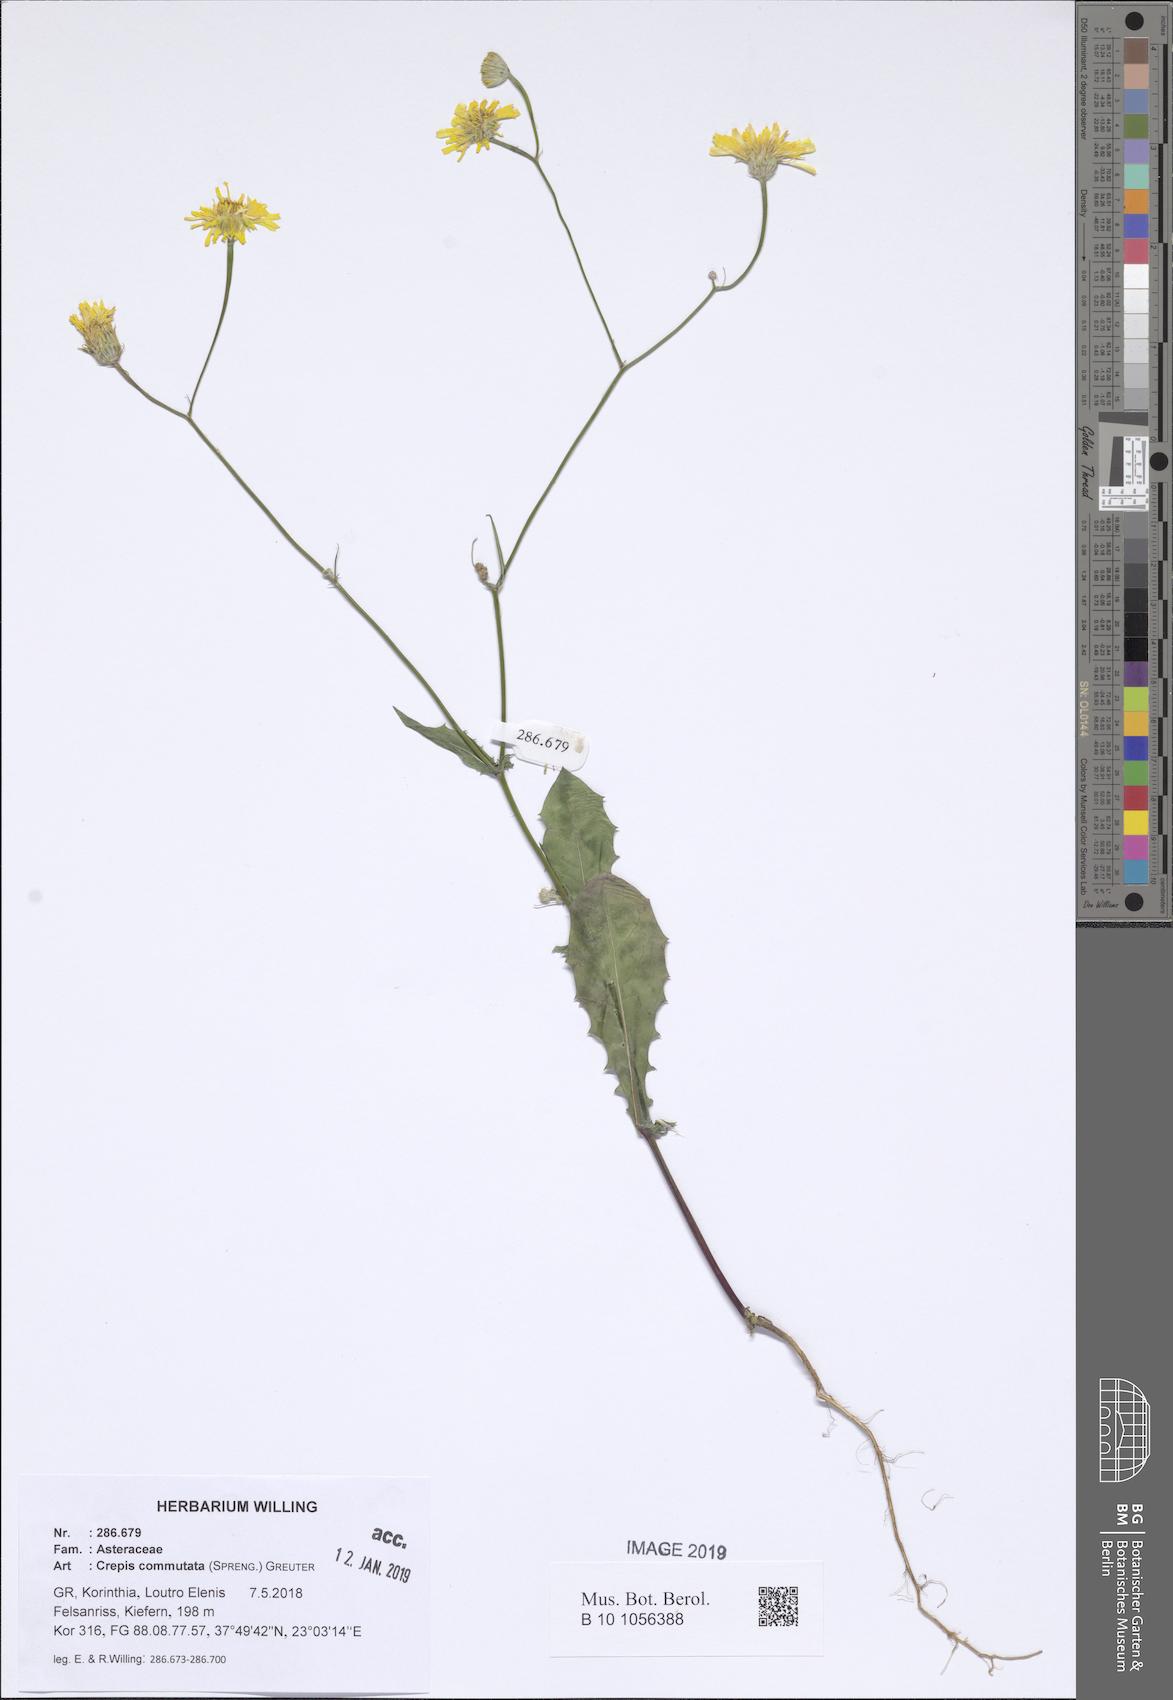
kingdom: Plantae
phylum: Tracheophyta
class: Magnoliopsida
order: Asterales
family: Asteraceae
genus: Crepis
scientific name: Crepis commutata
